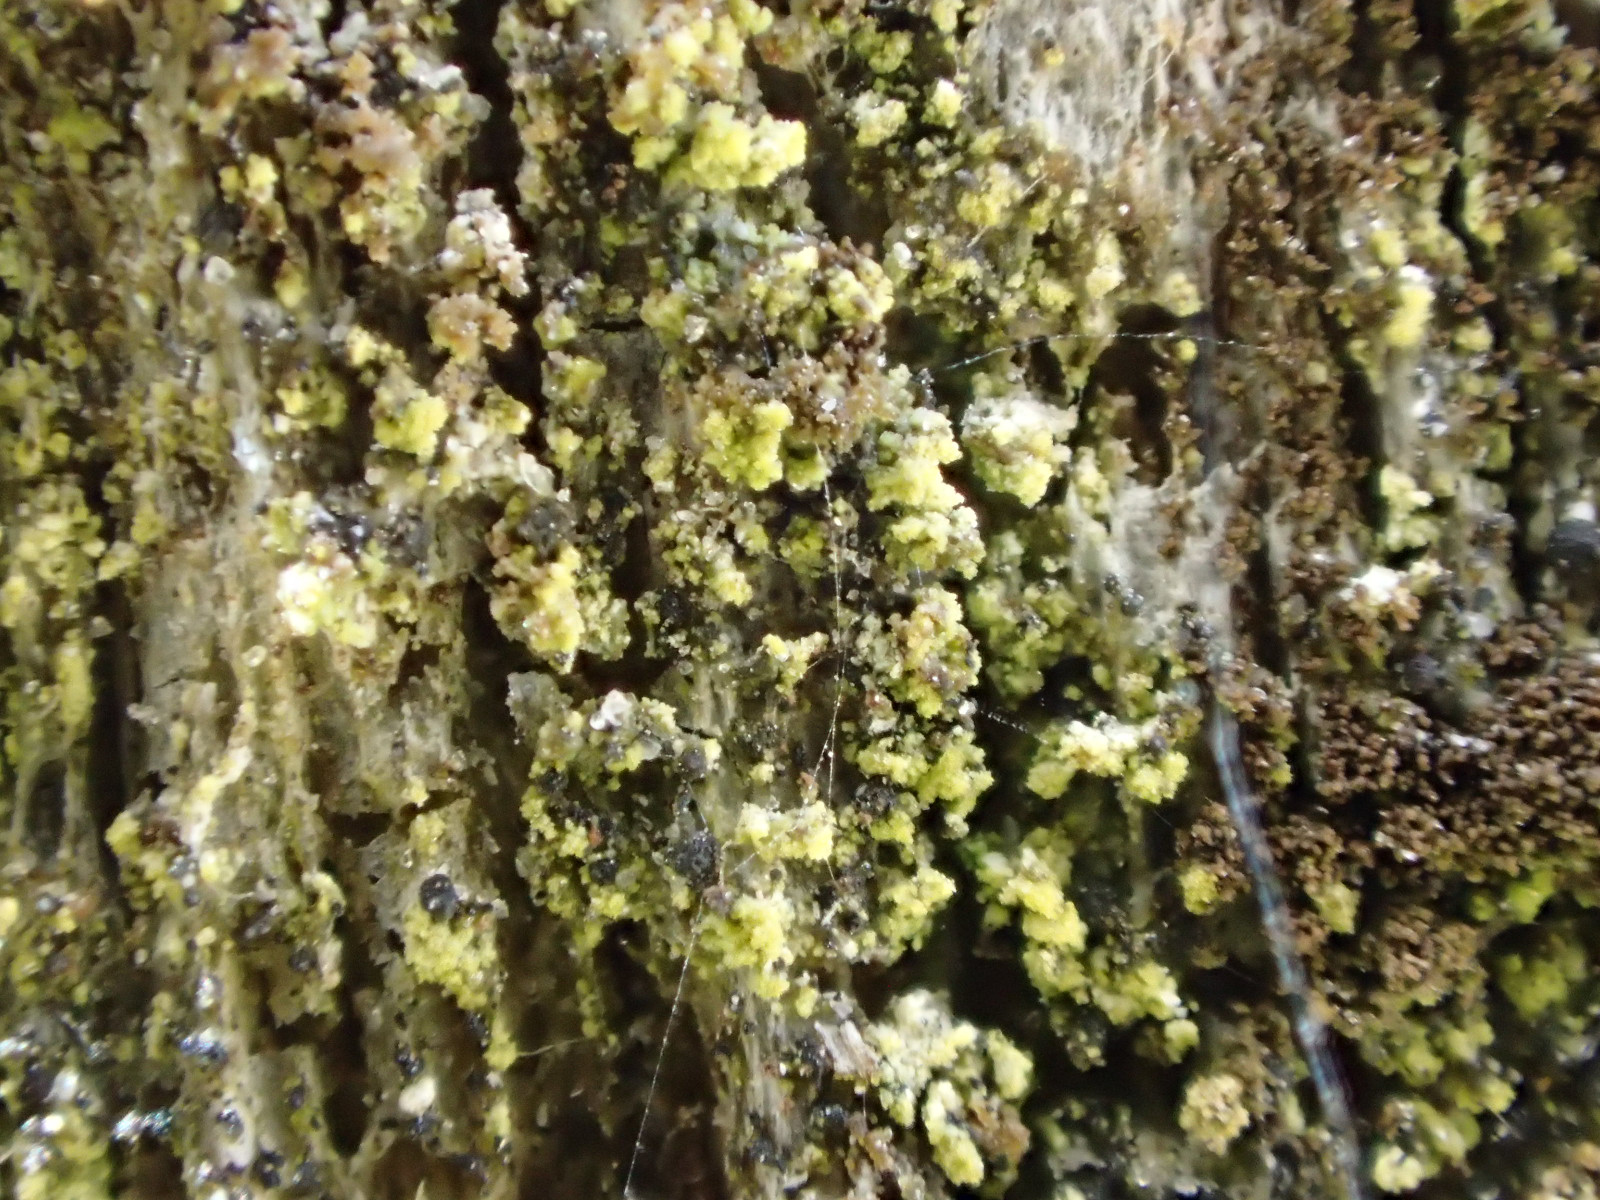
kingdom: Fungi
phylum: Ascomycota
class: Candelariomycetes
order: Candelariales
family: Candelariaceae
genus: Candelariella
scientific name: Candelariella reflexa
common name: grynskællet æggeblommelav
